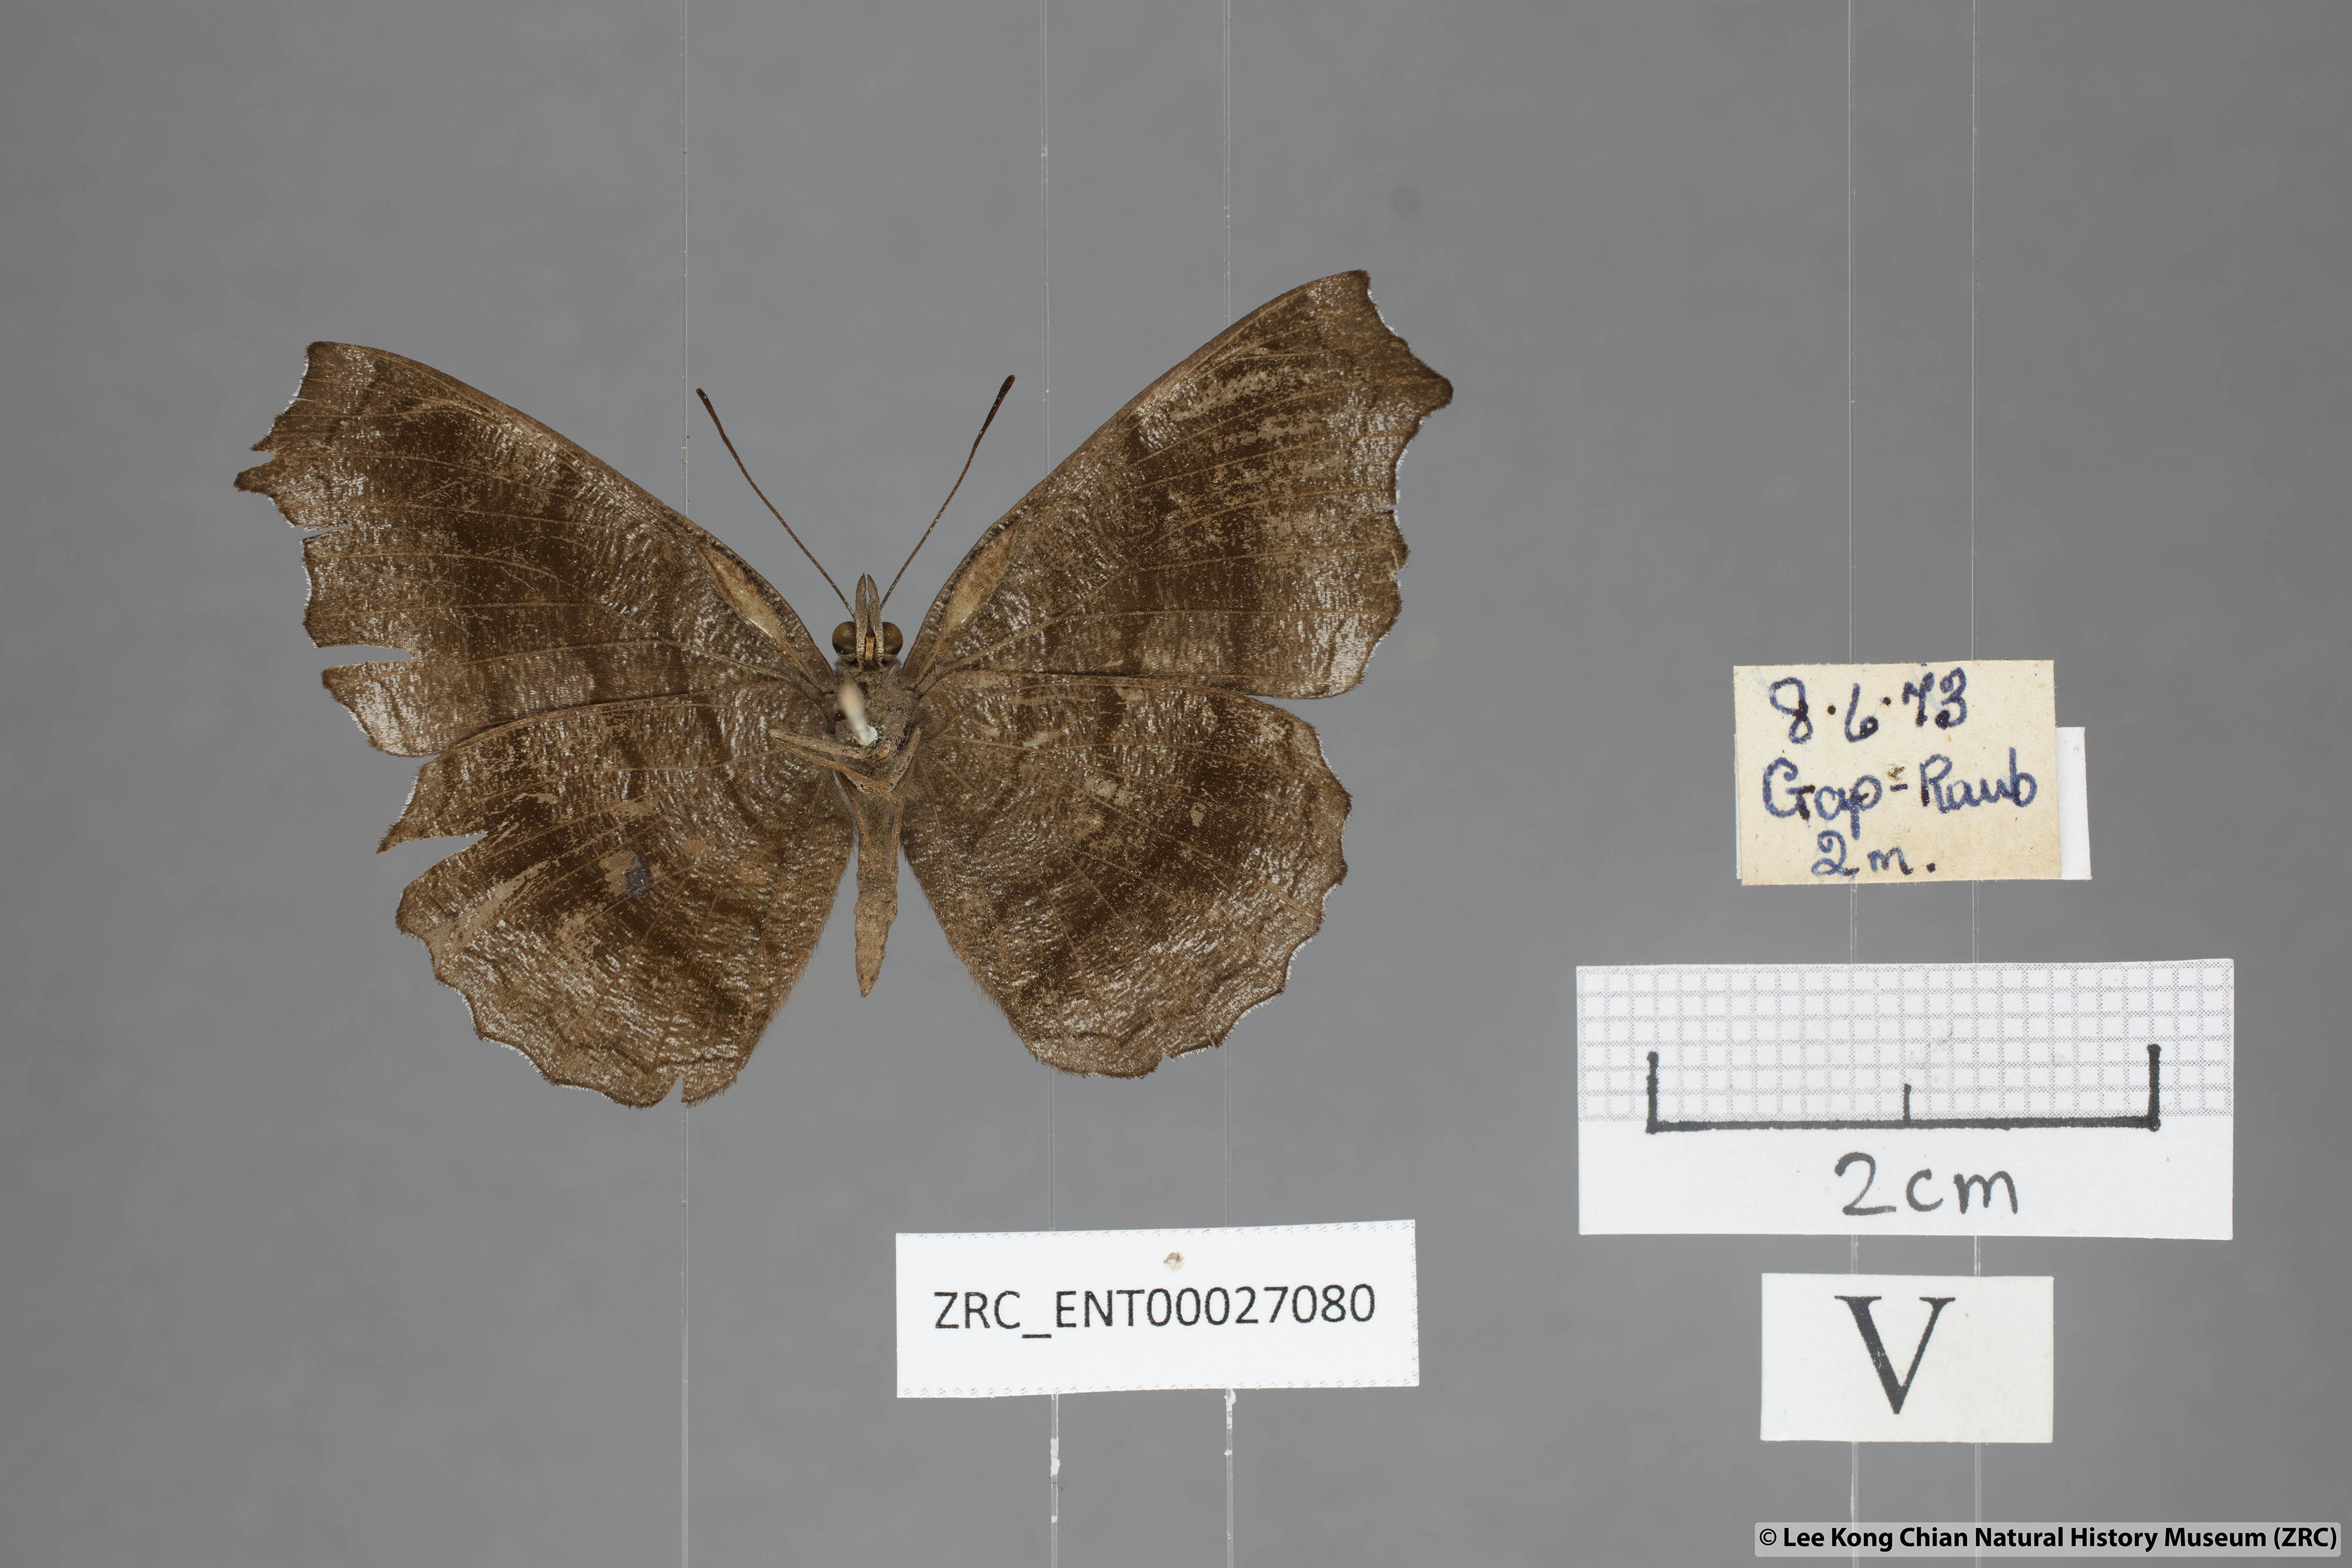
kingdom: Animalia
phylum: Arthropoda
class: Insecta
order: Lepidoptera
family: Nymphalidae
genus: Laringa
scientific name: Laringa castelnaui
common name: Blue dandy
